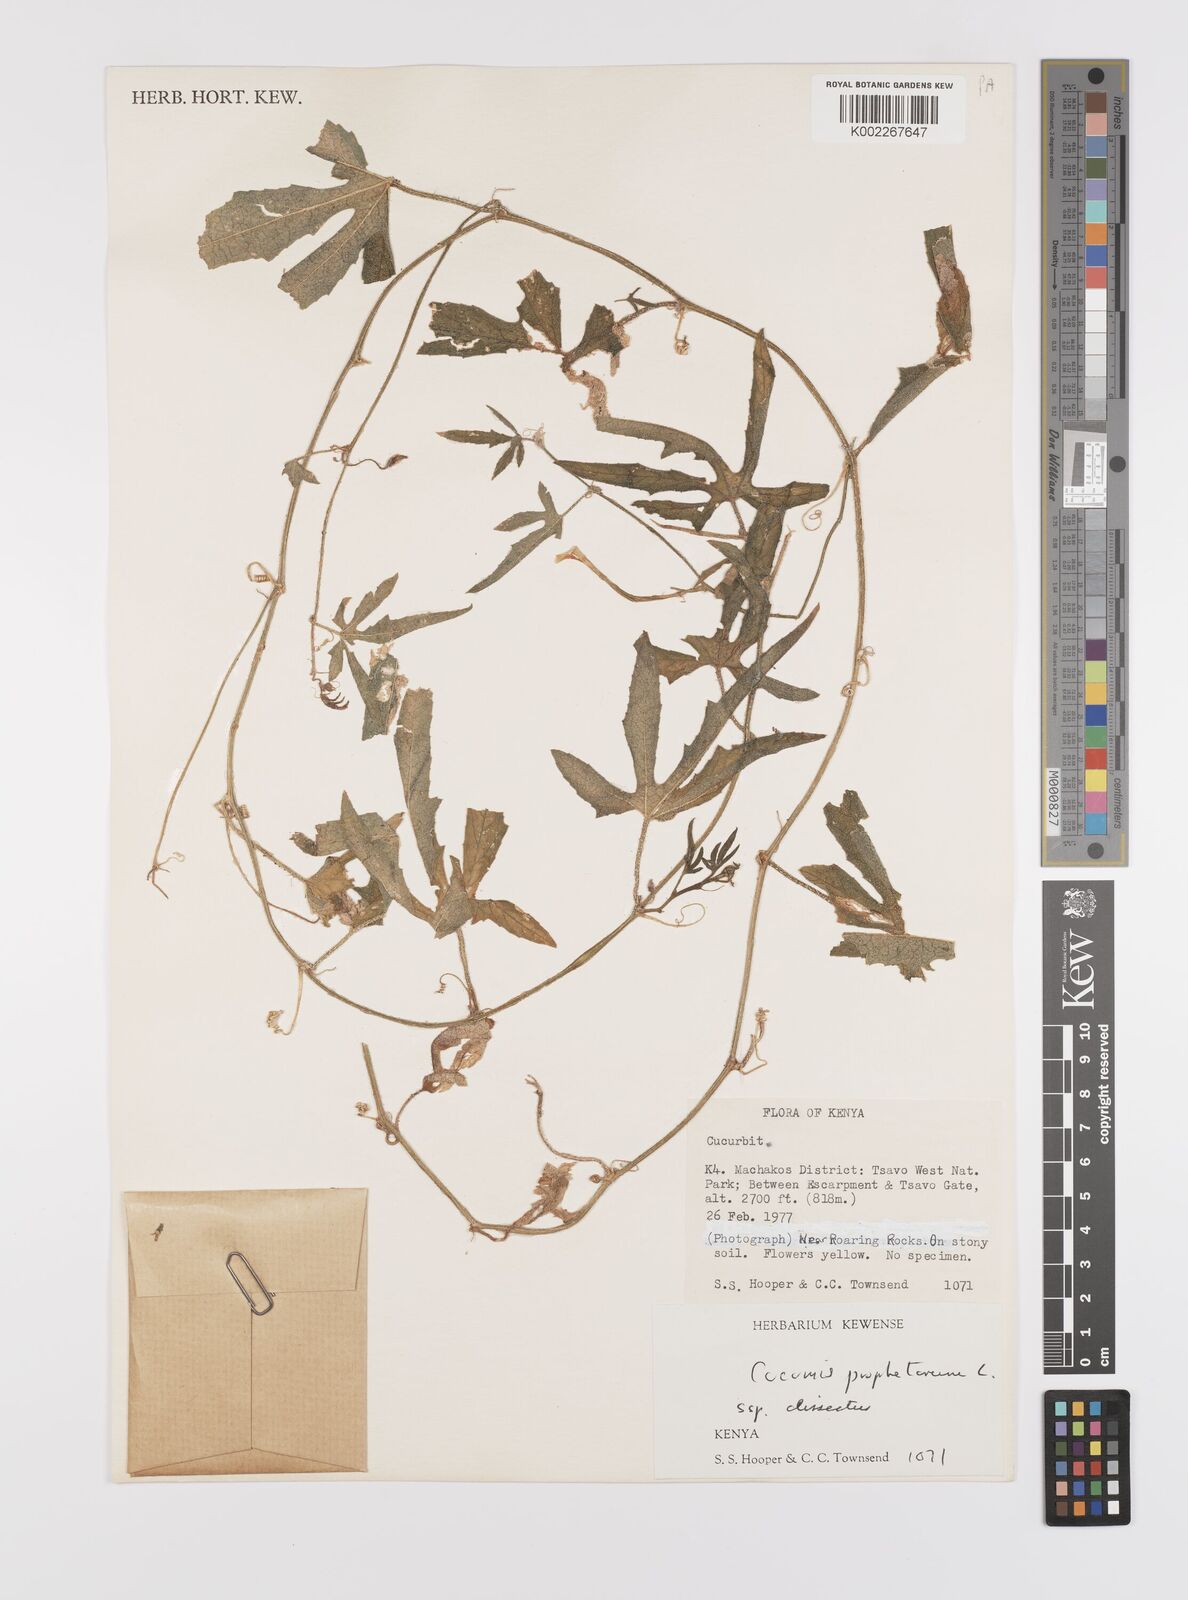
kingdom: Plantae
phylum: Tracheophyta
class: Magnoliopsida
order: Cucurbitales
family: Cucurbitaceae
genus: Cucumis
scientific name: Cucumis insignis
